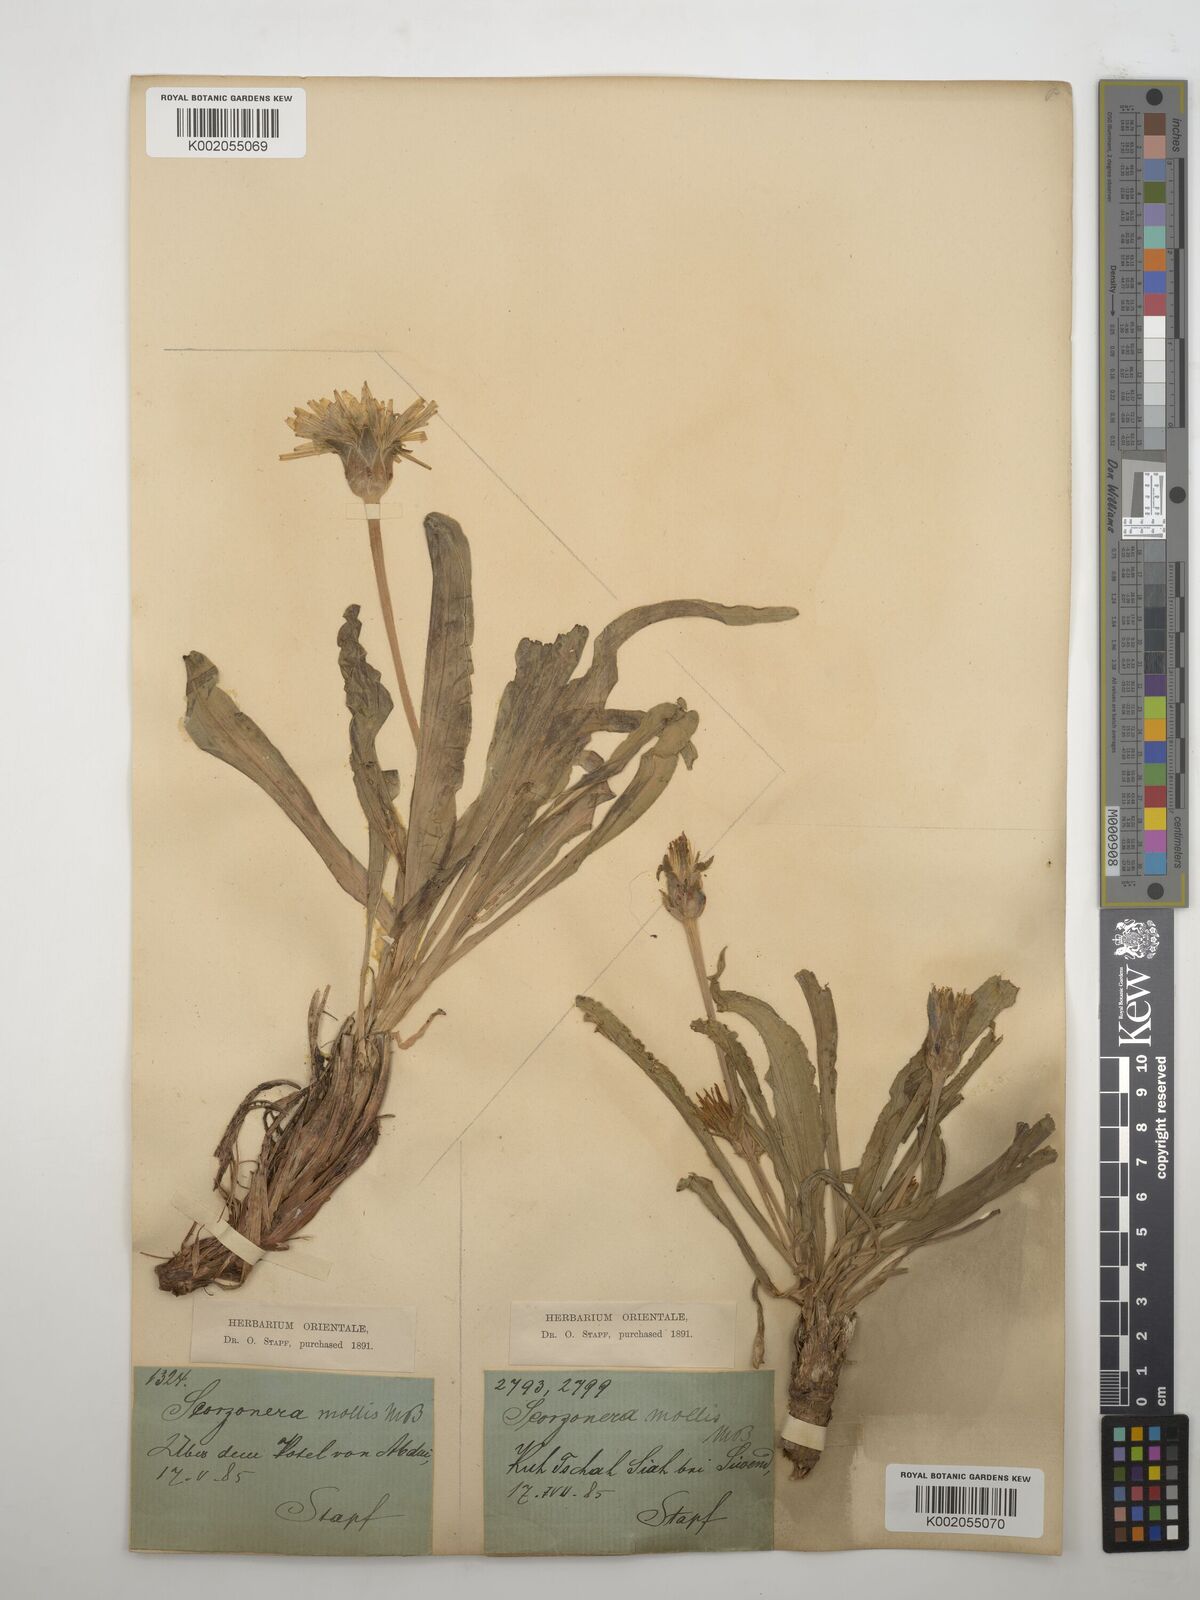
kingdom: Plantae
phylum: Tracheophyta
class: Magnoliopsida
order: Asterales
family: Asteraceae
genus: Candollea
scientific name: Candollea mollis
